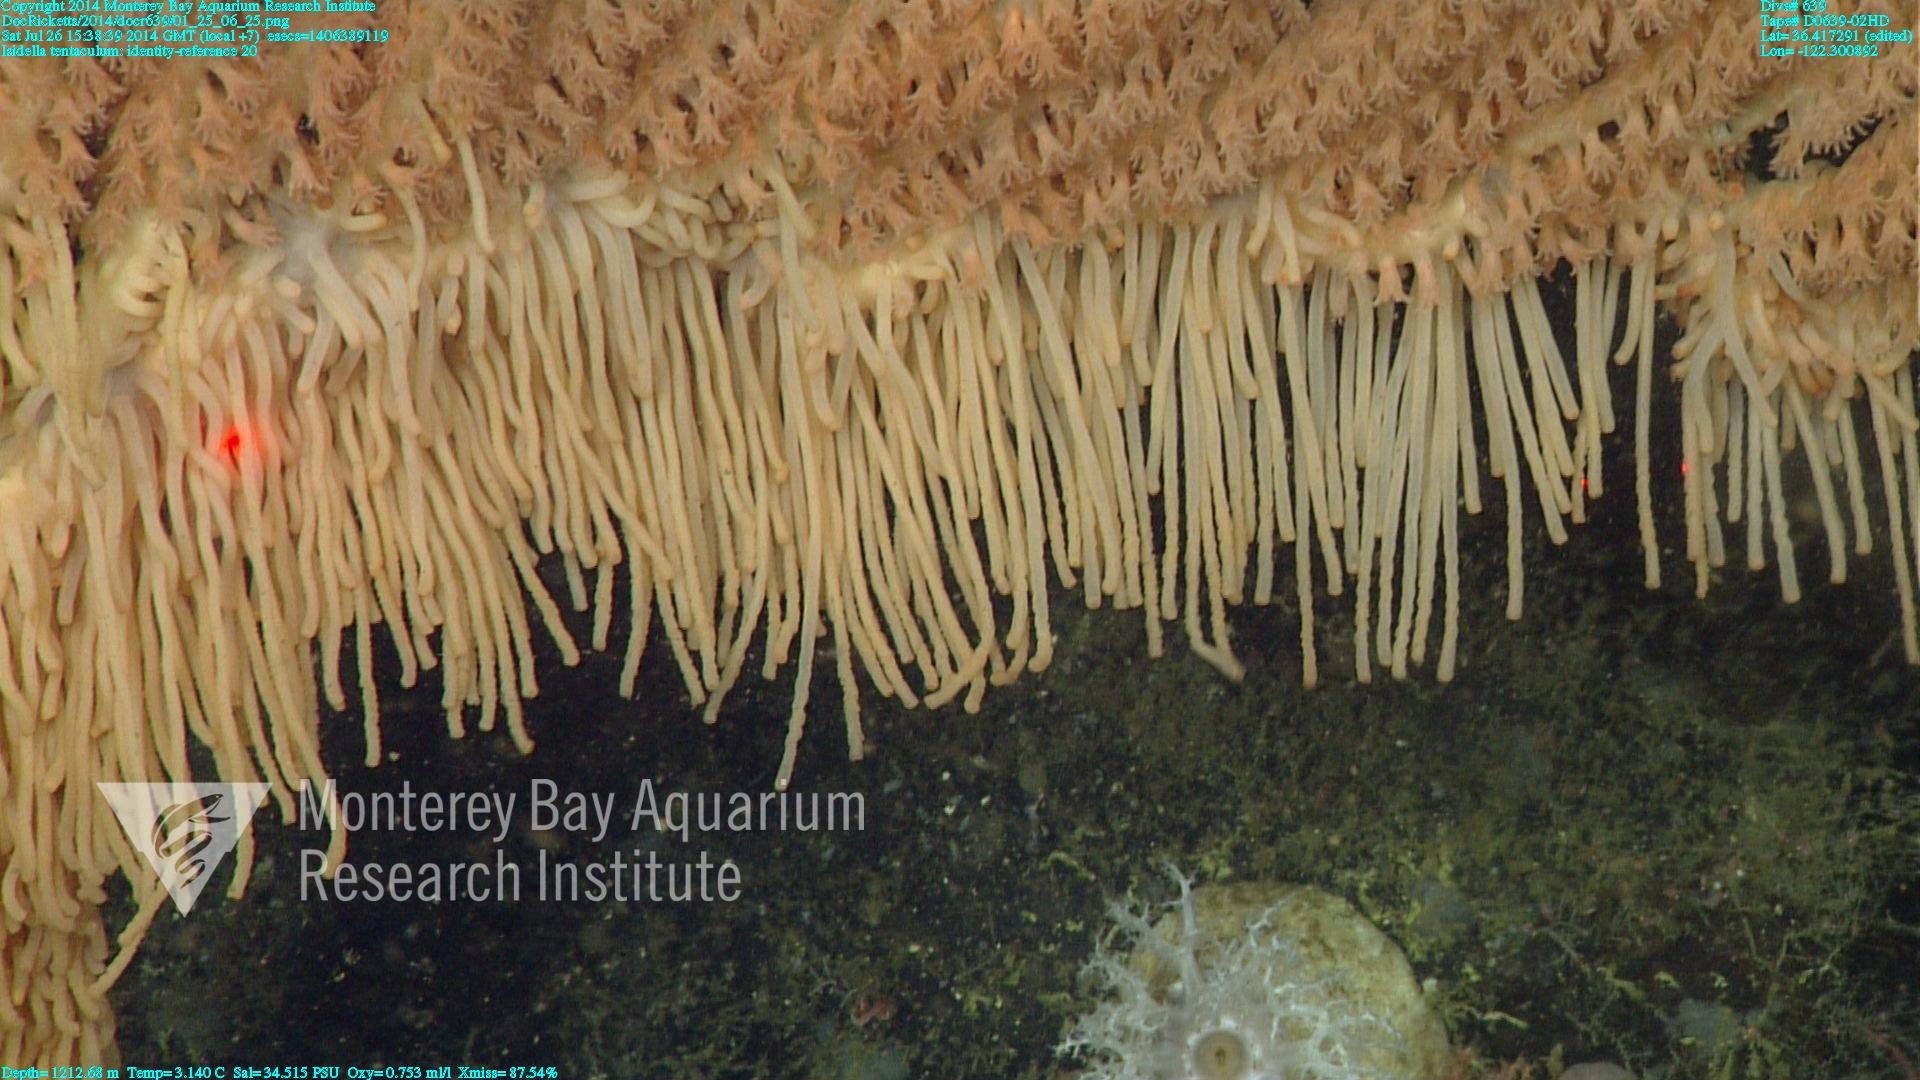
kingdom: Animalia
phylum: Cnidaria
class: Anthozoa
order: Scleralcyonacea
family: Keratoisididae
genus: Isidella
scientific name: Isidella tentaculum
